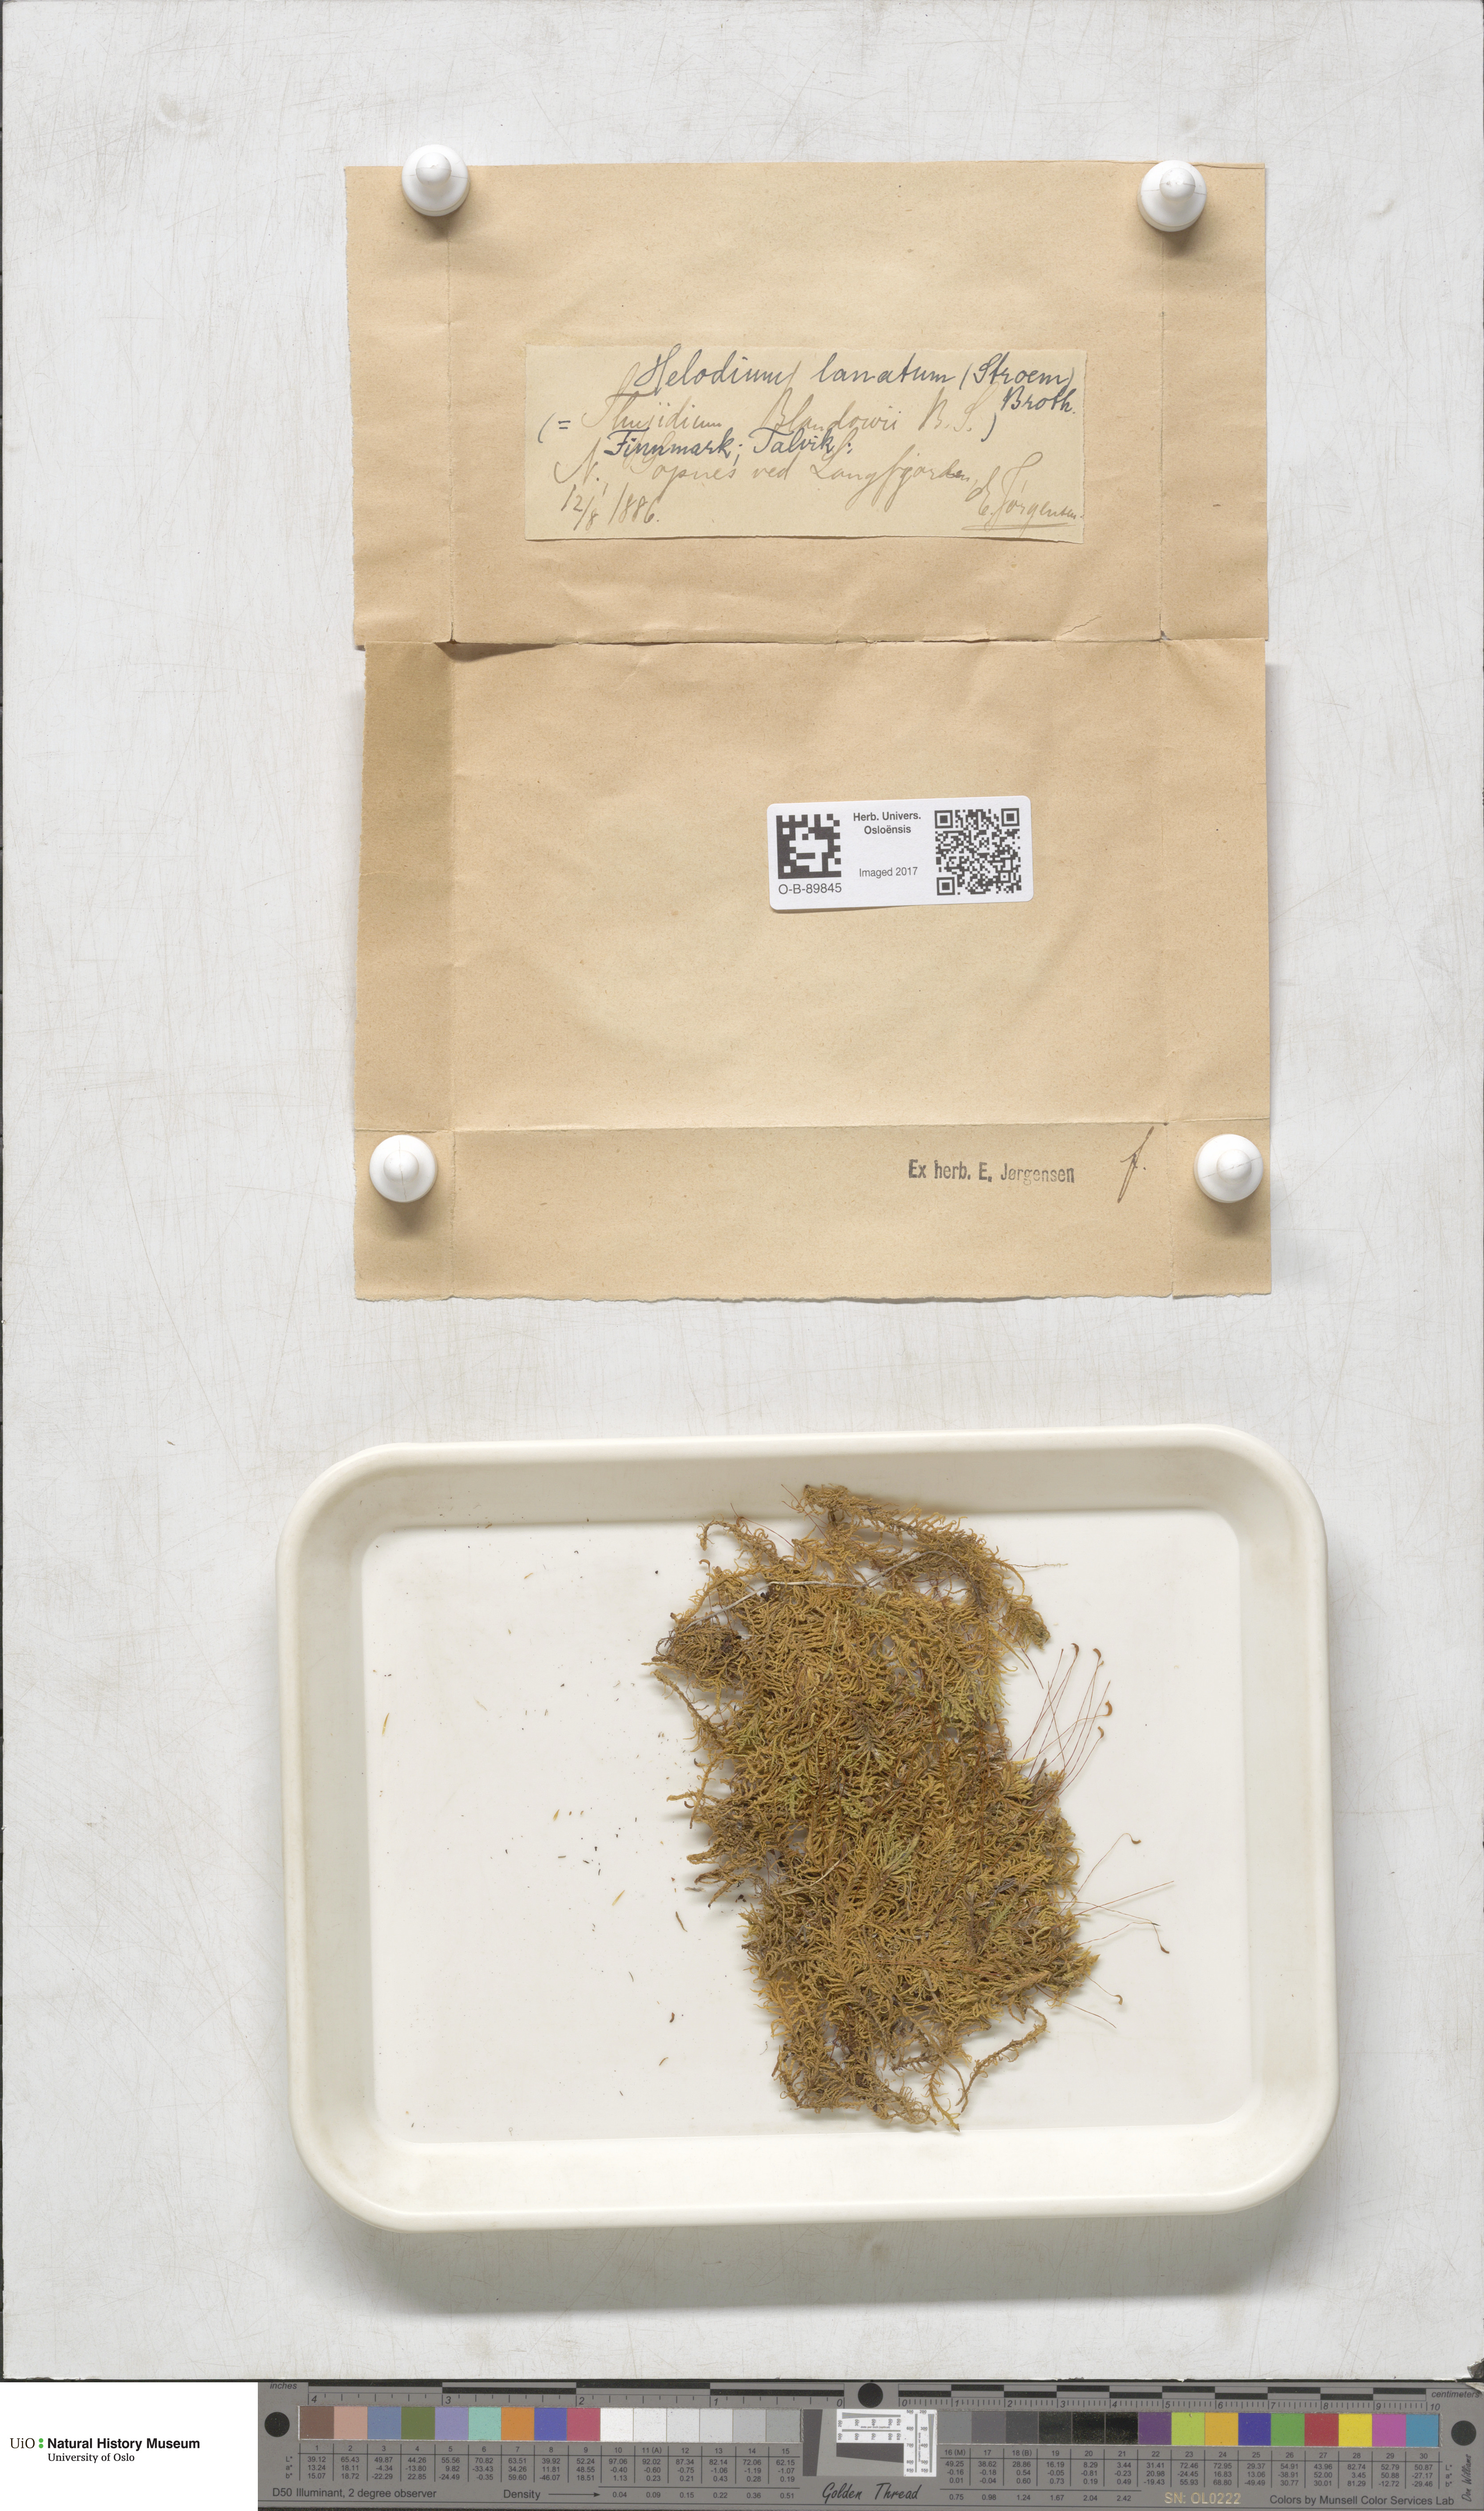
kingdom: Plantae
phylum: Bryophyta
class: Bryopsida
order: Hypnales
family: Helodiaceae
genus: Helodium
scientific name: Helodium blandowii
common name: Blandow's tamarisk-moss
